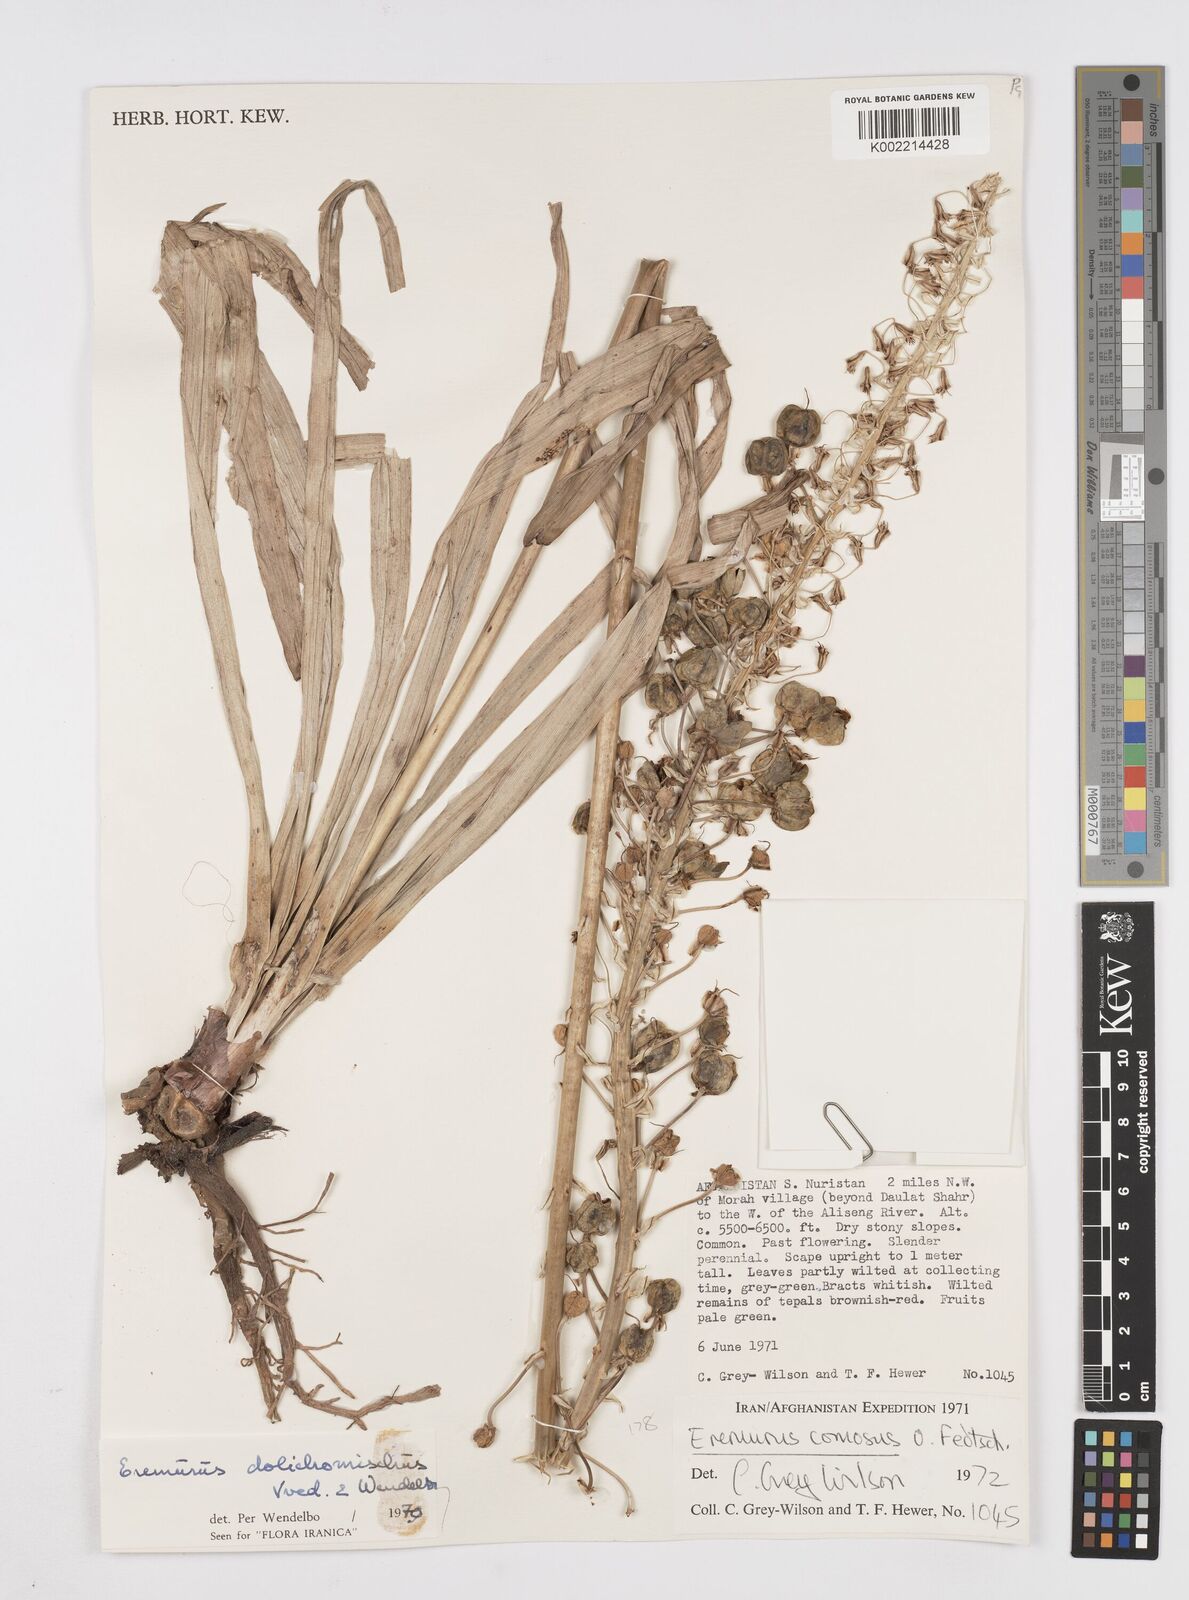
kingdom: Plantae
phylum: Tracheophyta
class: Liliopsida
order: Asparagales
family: Asphodelaceae
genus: Eremurus
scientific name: Eremurus dolichomischus
